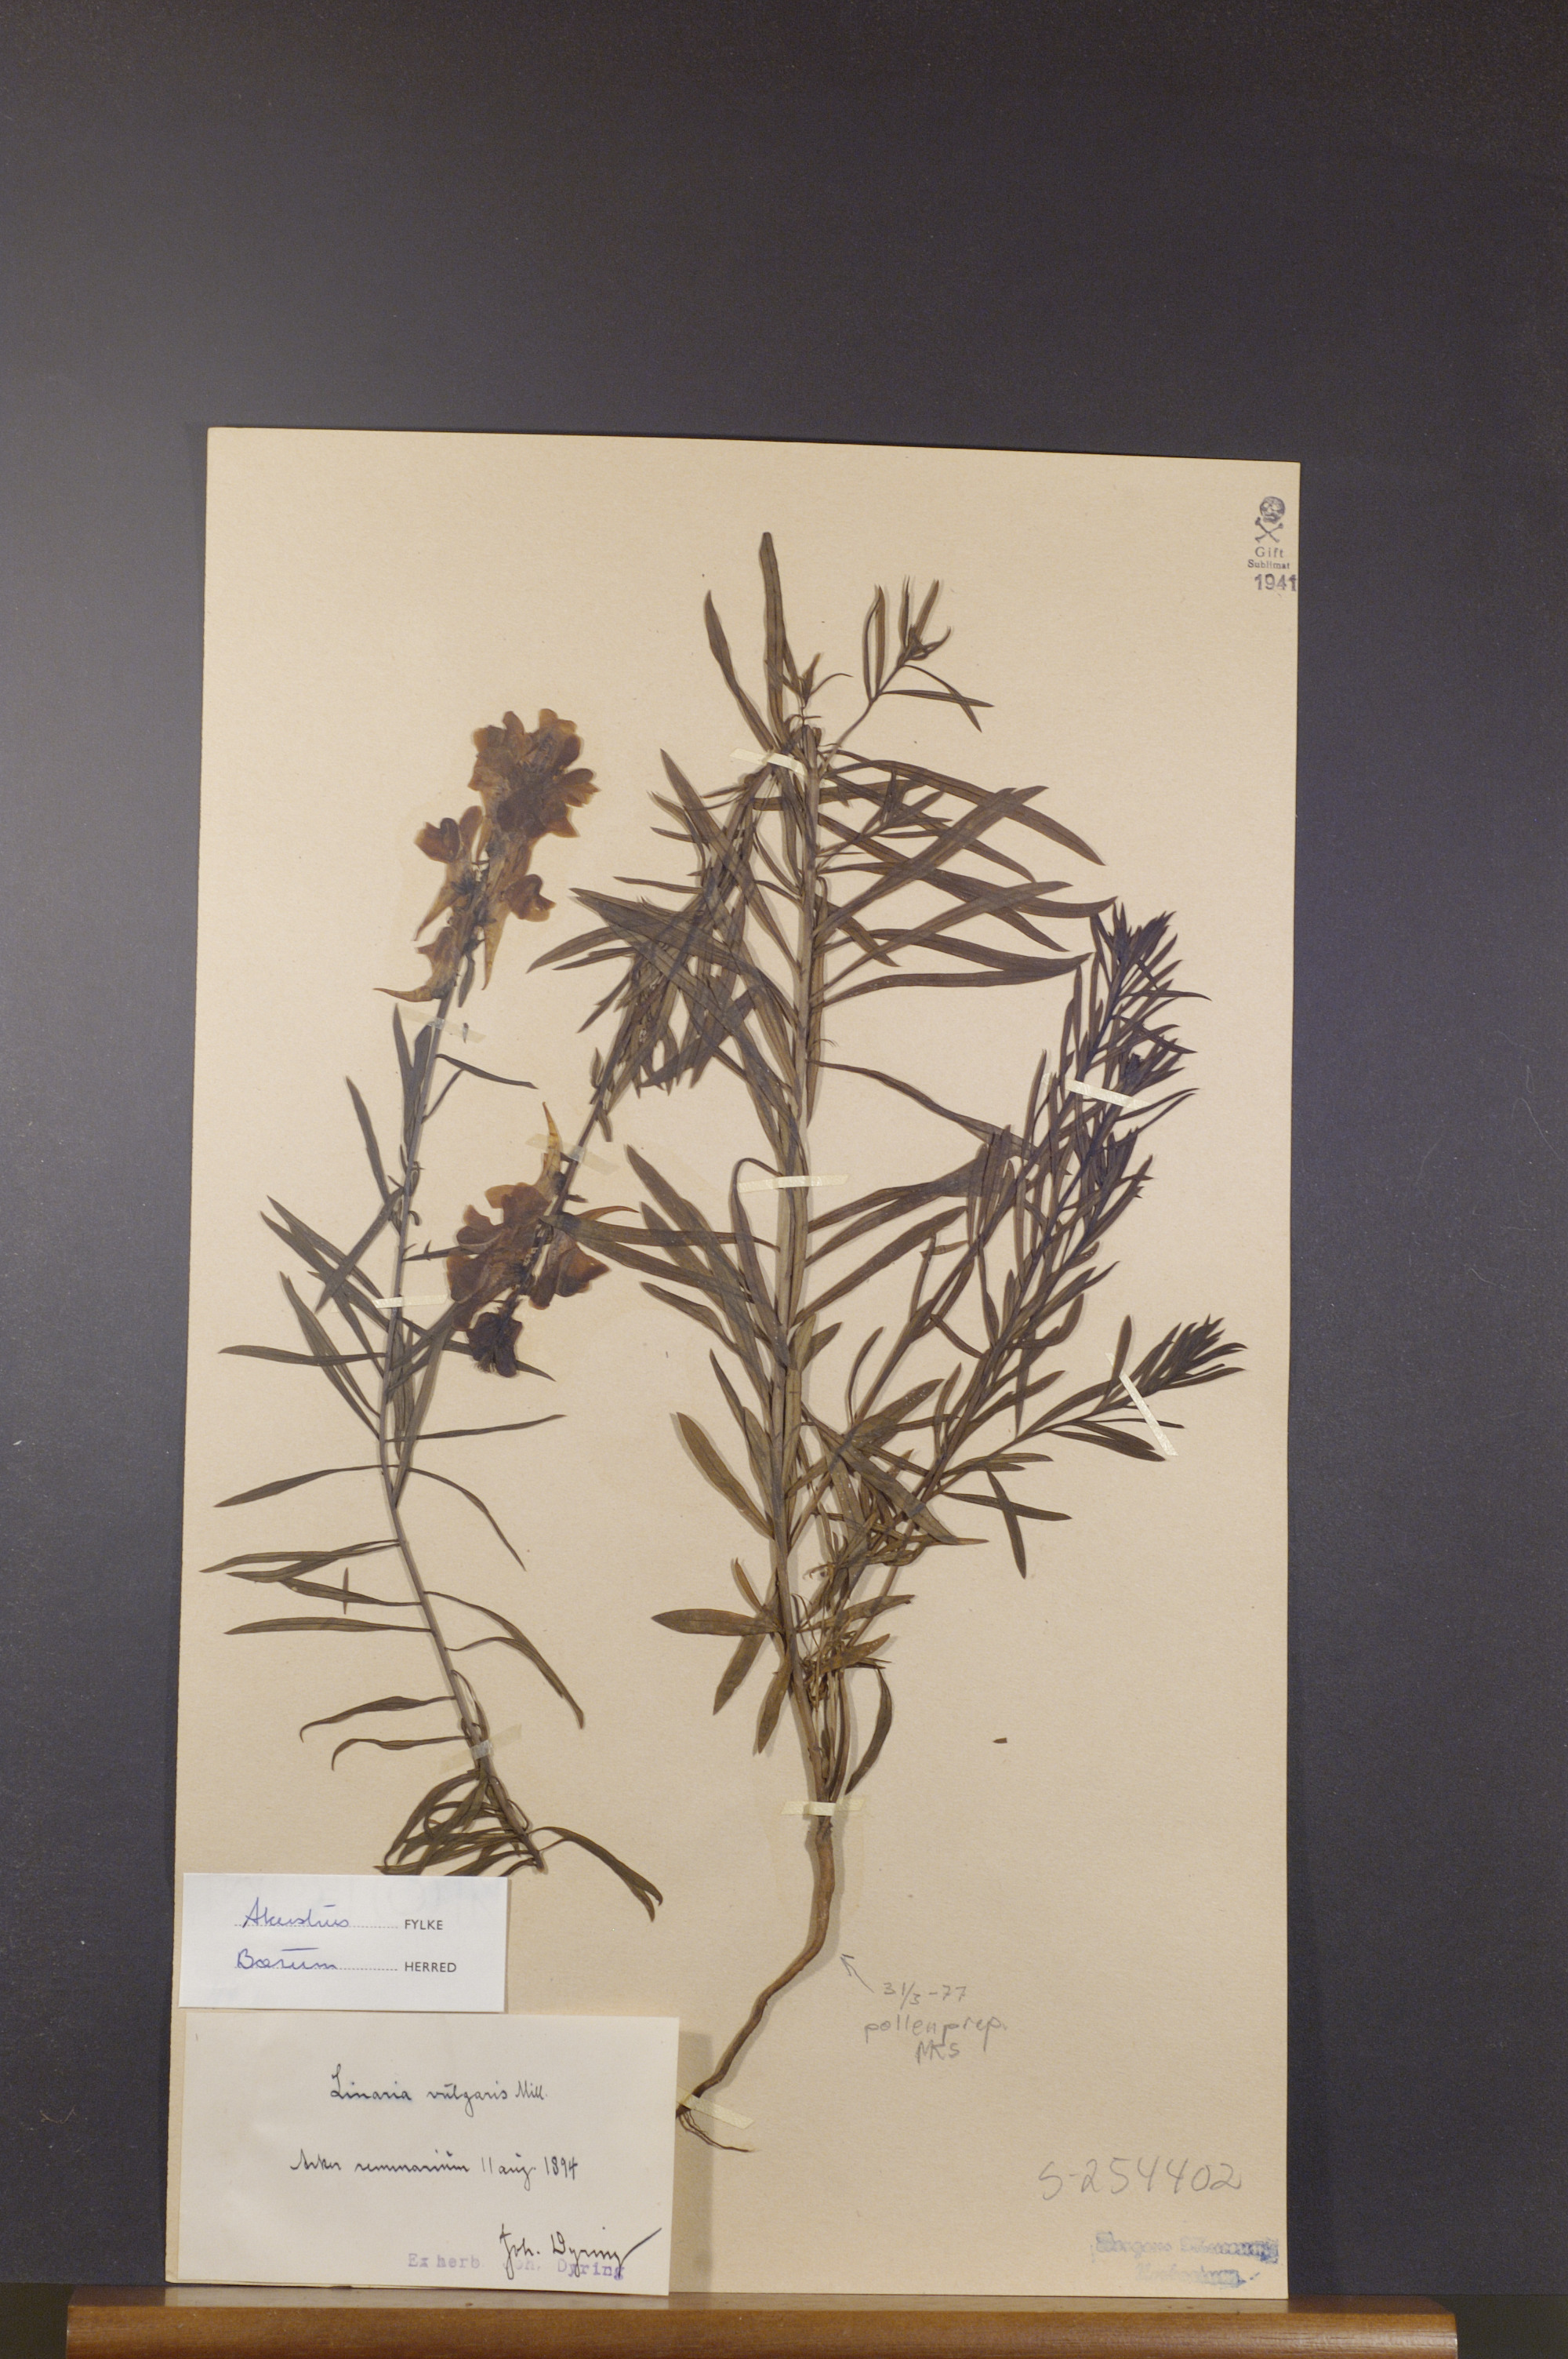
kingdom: Plantae
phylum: Tracheophyta
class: Magnoliopsida
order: Lamiales
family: Plantaginaceae
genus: Linaria
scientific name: Linaria vulgaris
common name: Butter and eggs
